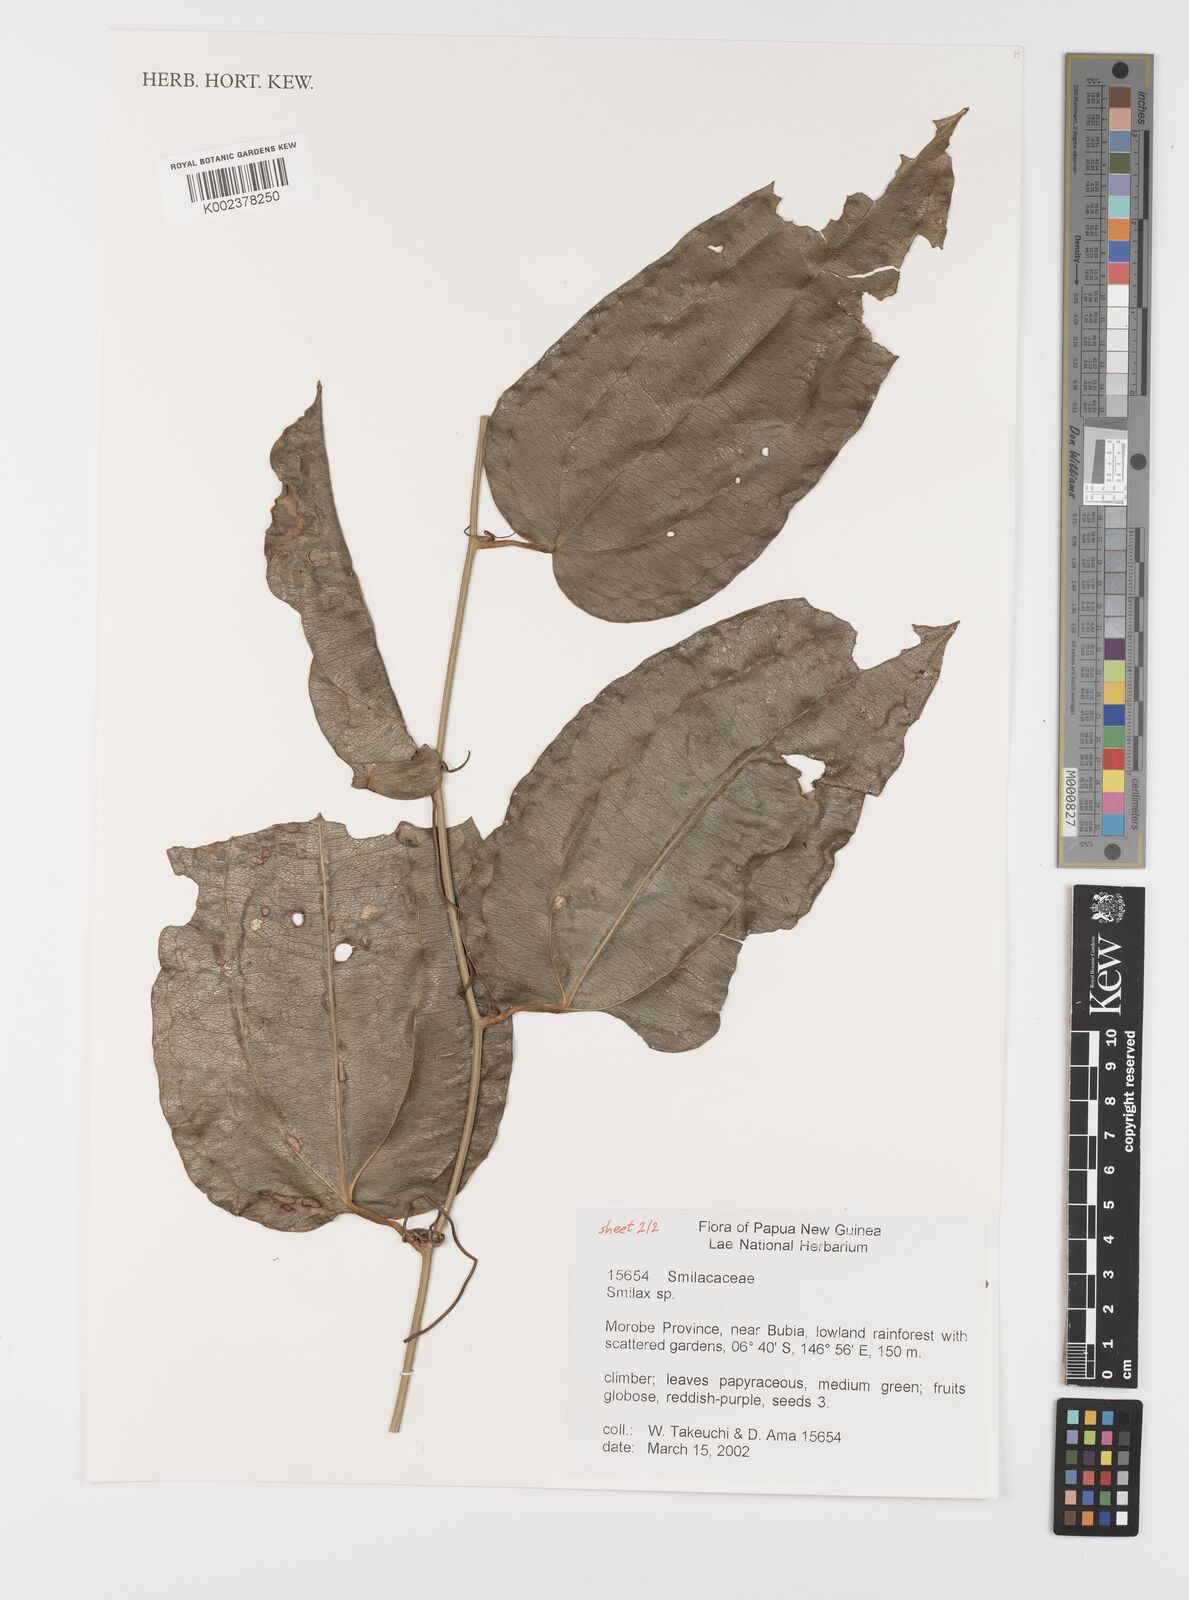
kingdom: Plantae
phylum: Tracheophyta
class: Liliopsida
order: Liliales
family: Smilacaceae
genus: Smilax
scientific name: Smilax
